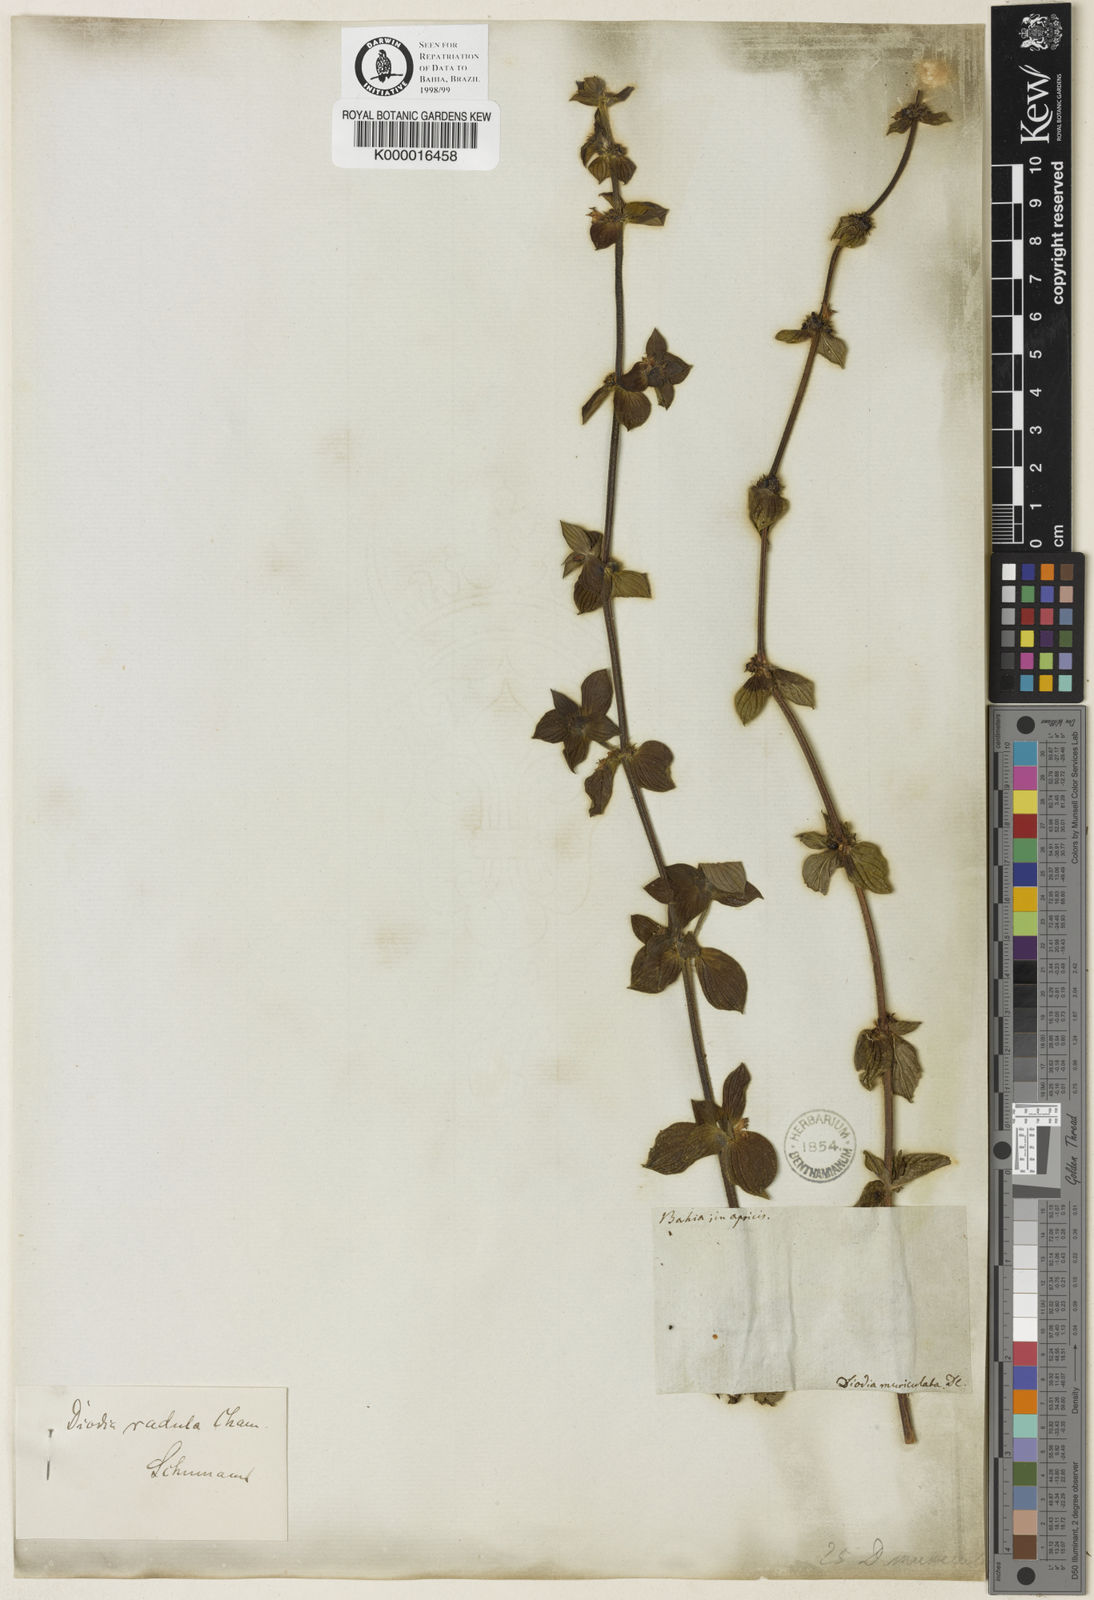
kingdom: Plantae
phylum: Tracheophyta
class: Magnoliopsida
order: Gentianales
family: Rubiaceae
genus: Hexasepalum
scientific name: Hexasepalum radulum
